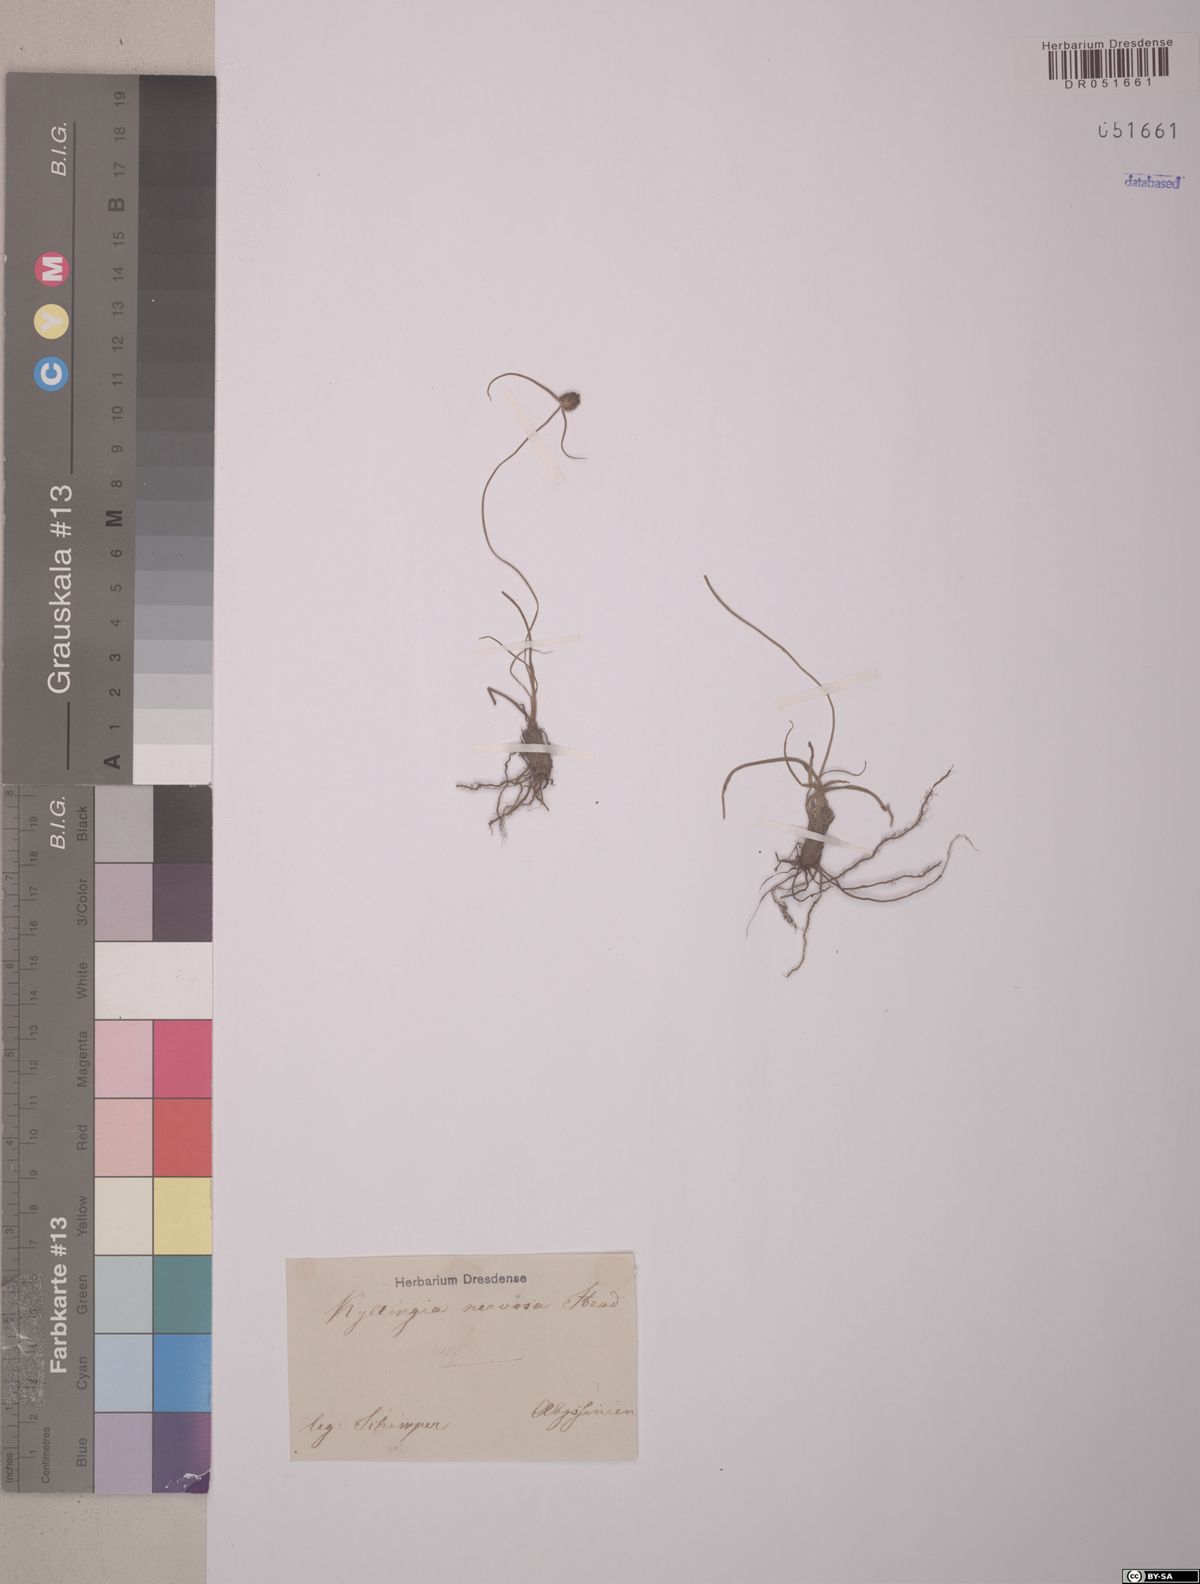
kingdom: Plantae
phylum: Tracheophyta
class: Liliopsida
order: Poales
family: Cyperaceae
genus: Cyperus
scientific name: Cyperus costatus
